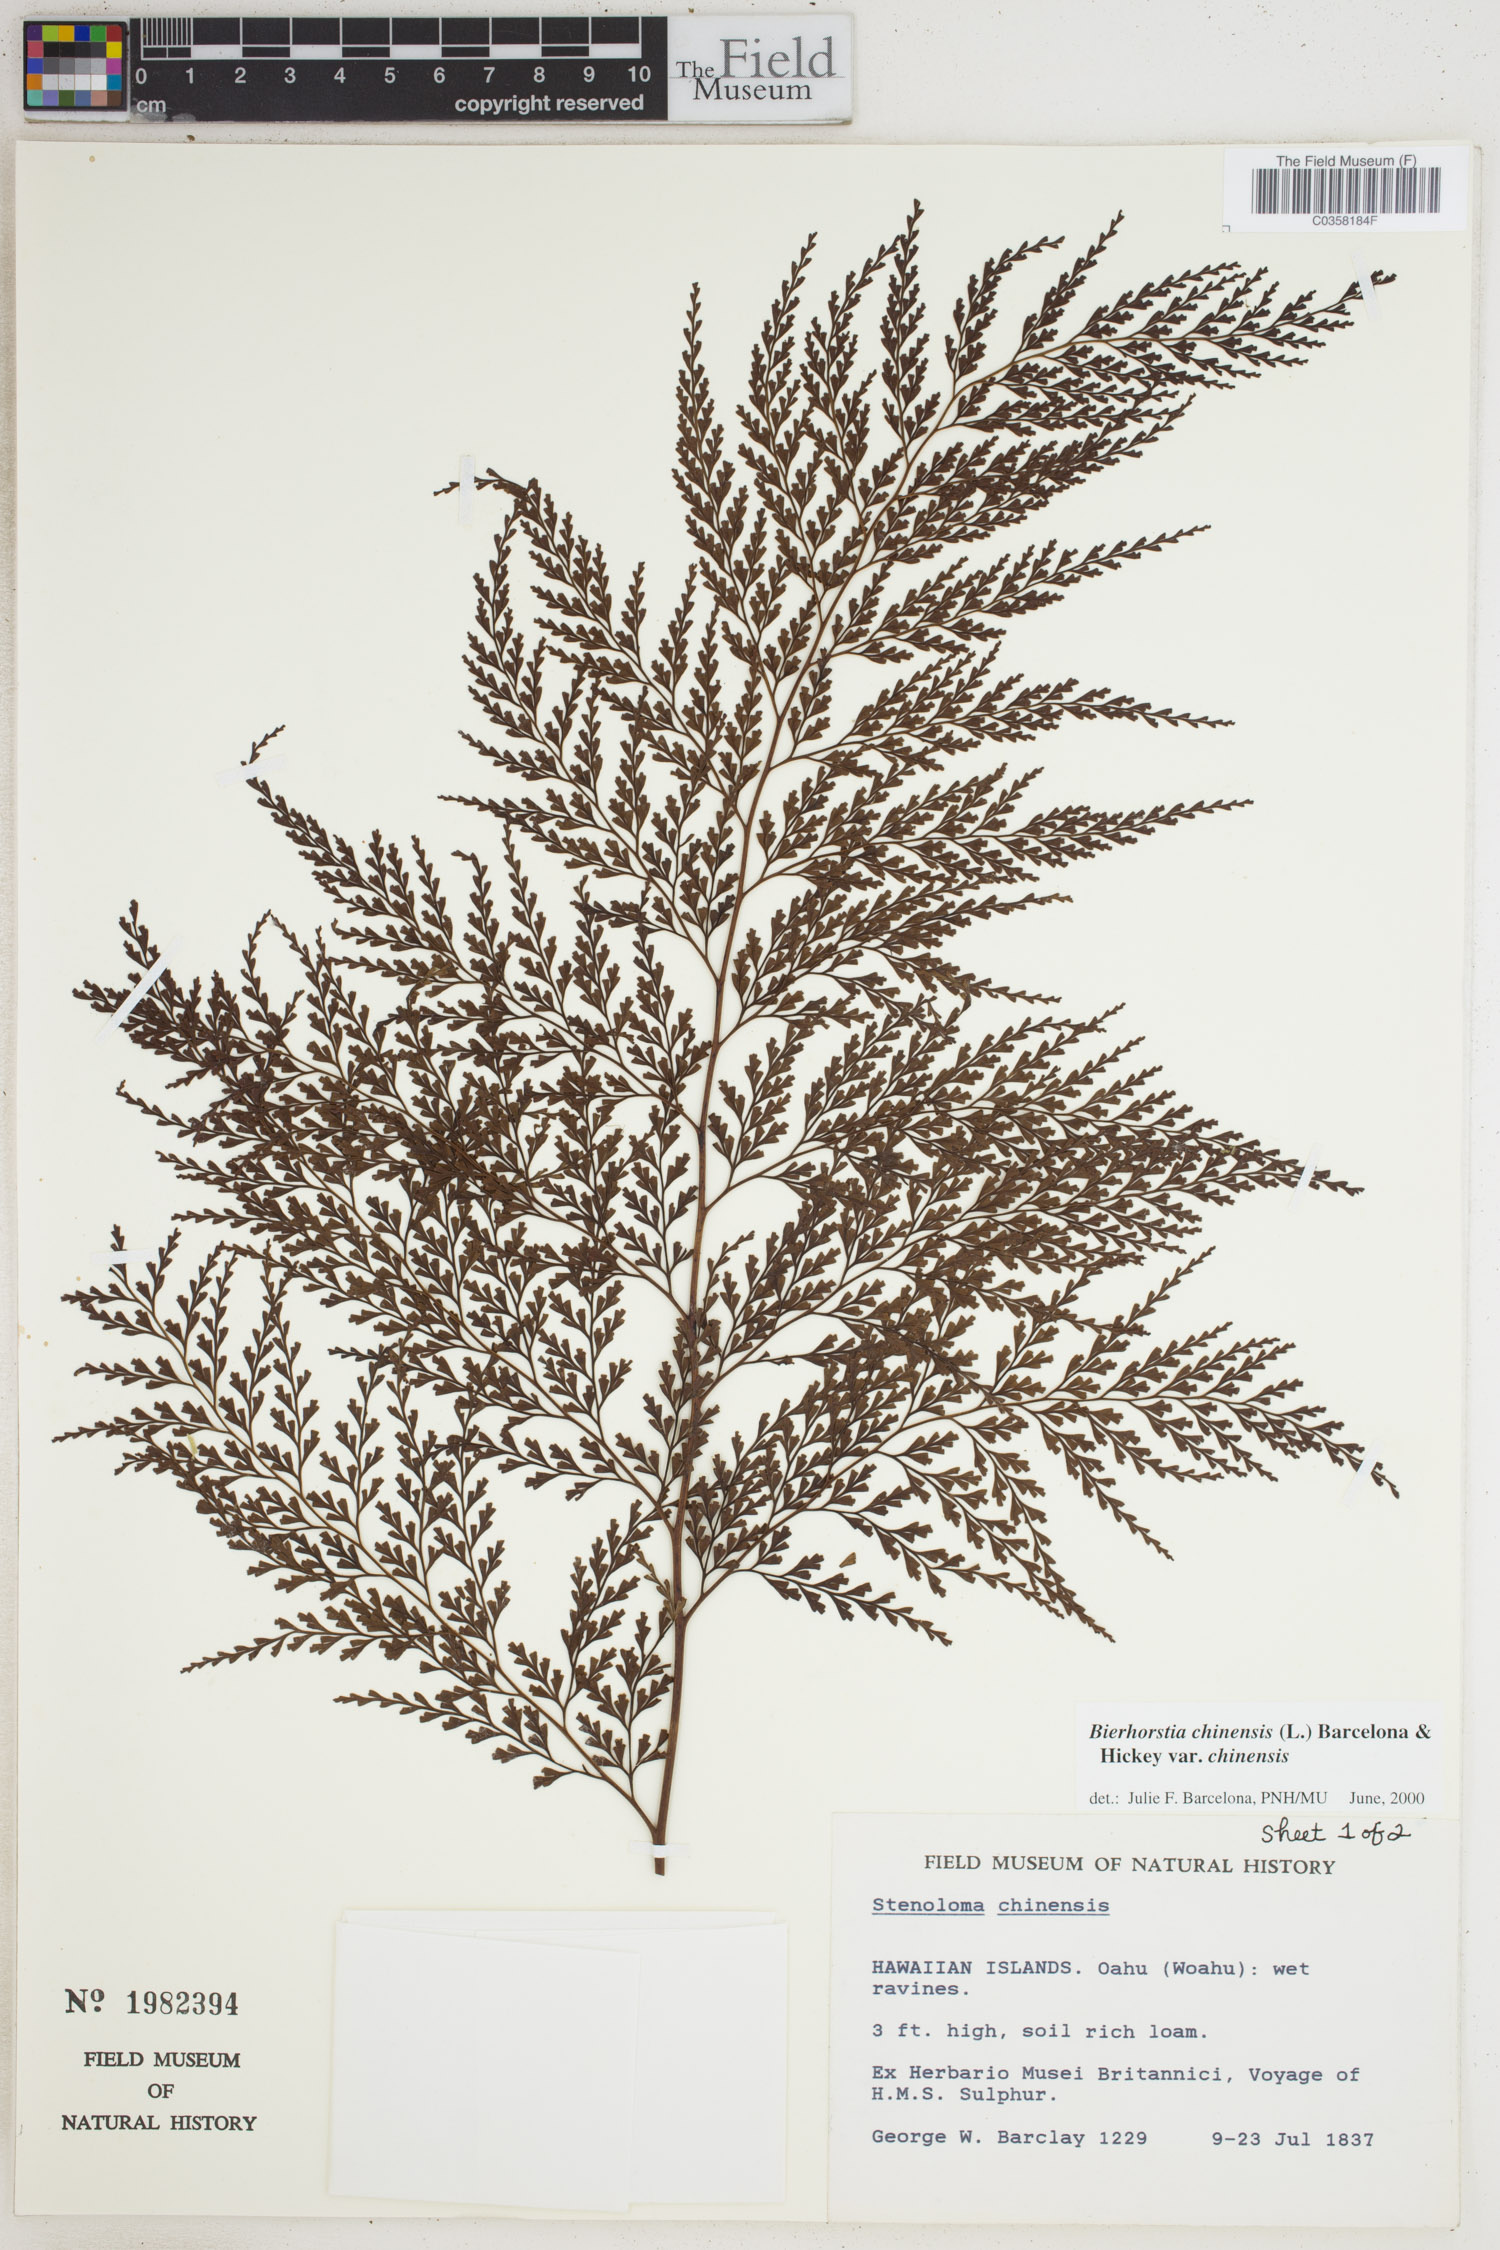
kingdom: Plantae
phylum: Tracheophyta
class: Polypodiopsida
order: Polypodiales
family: Lindsaeaceae
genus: Odontosoria
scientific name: Odontosoria chinensis
